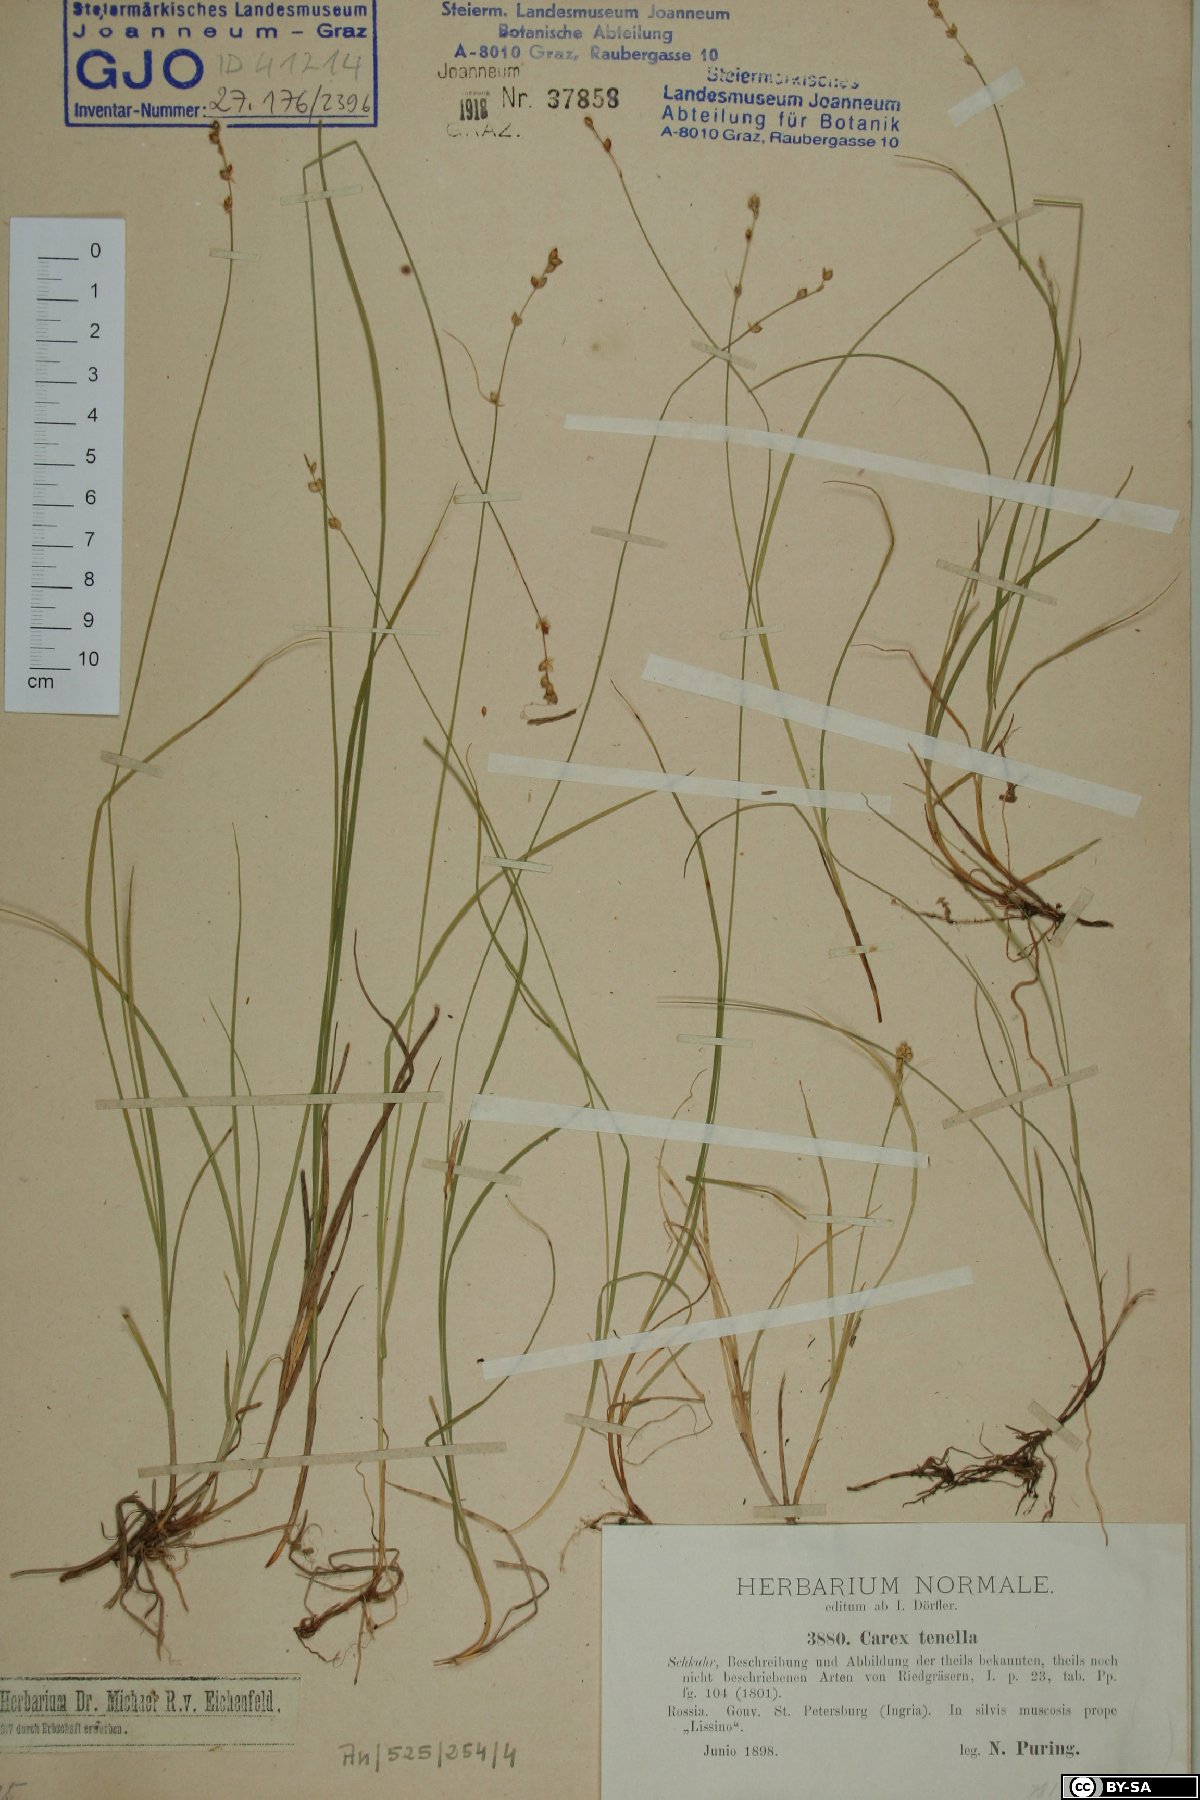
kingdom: Plantae
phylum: Tracheophyta
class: Liliopsida
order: Poales
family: Cyperaceae
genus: Carex
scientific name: Carex disperma
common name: Short-leaved sedge
